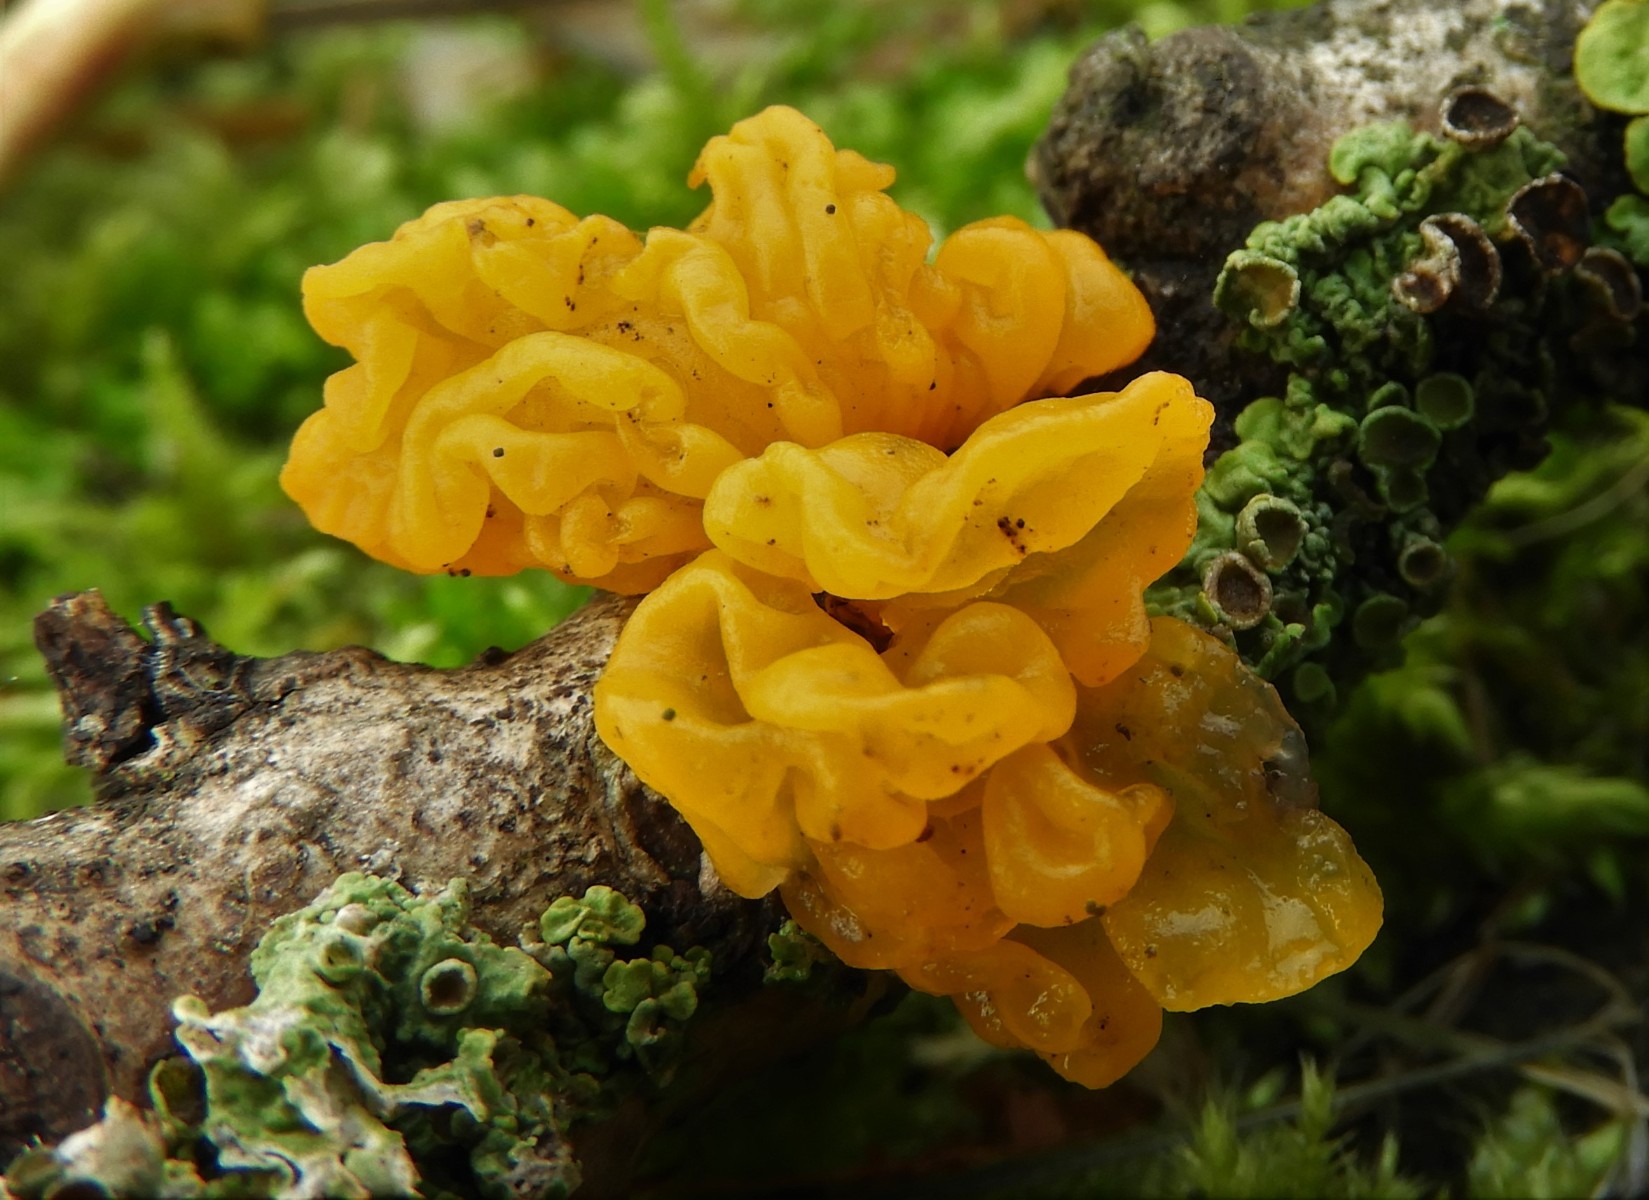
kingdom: Fungi
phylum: Basidiomycota
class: Tremellomycetes
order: Tremellales
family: Tremellaceae
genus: Tremella
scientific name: Tremella mesenterica
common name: gul bævresvamp
